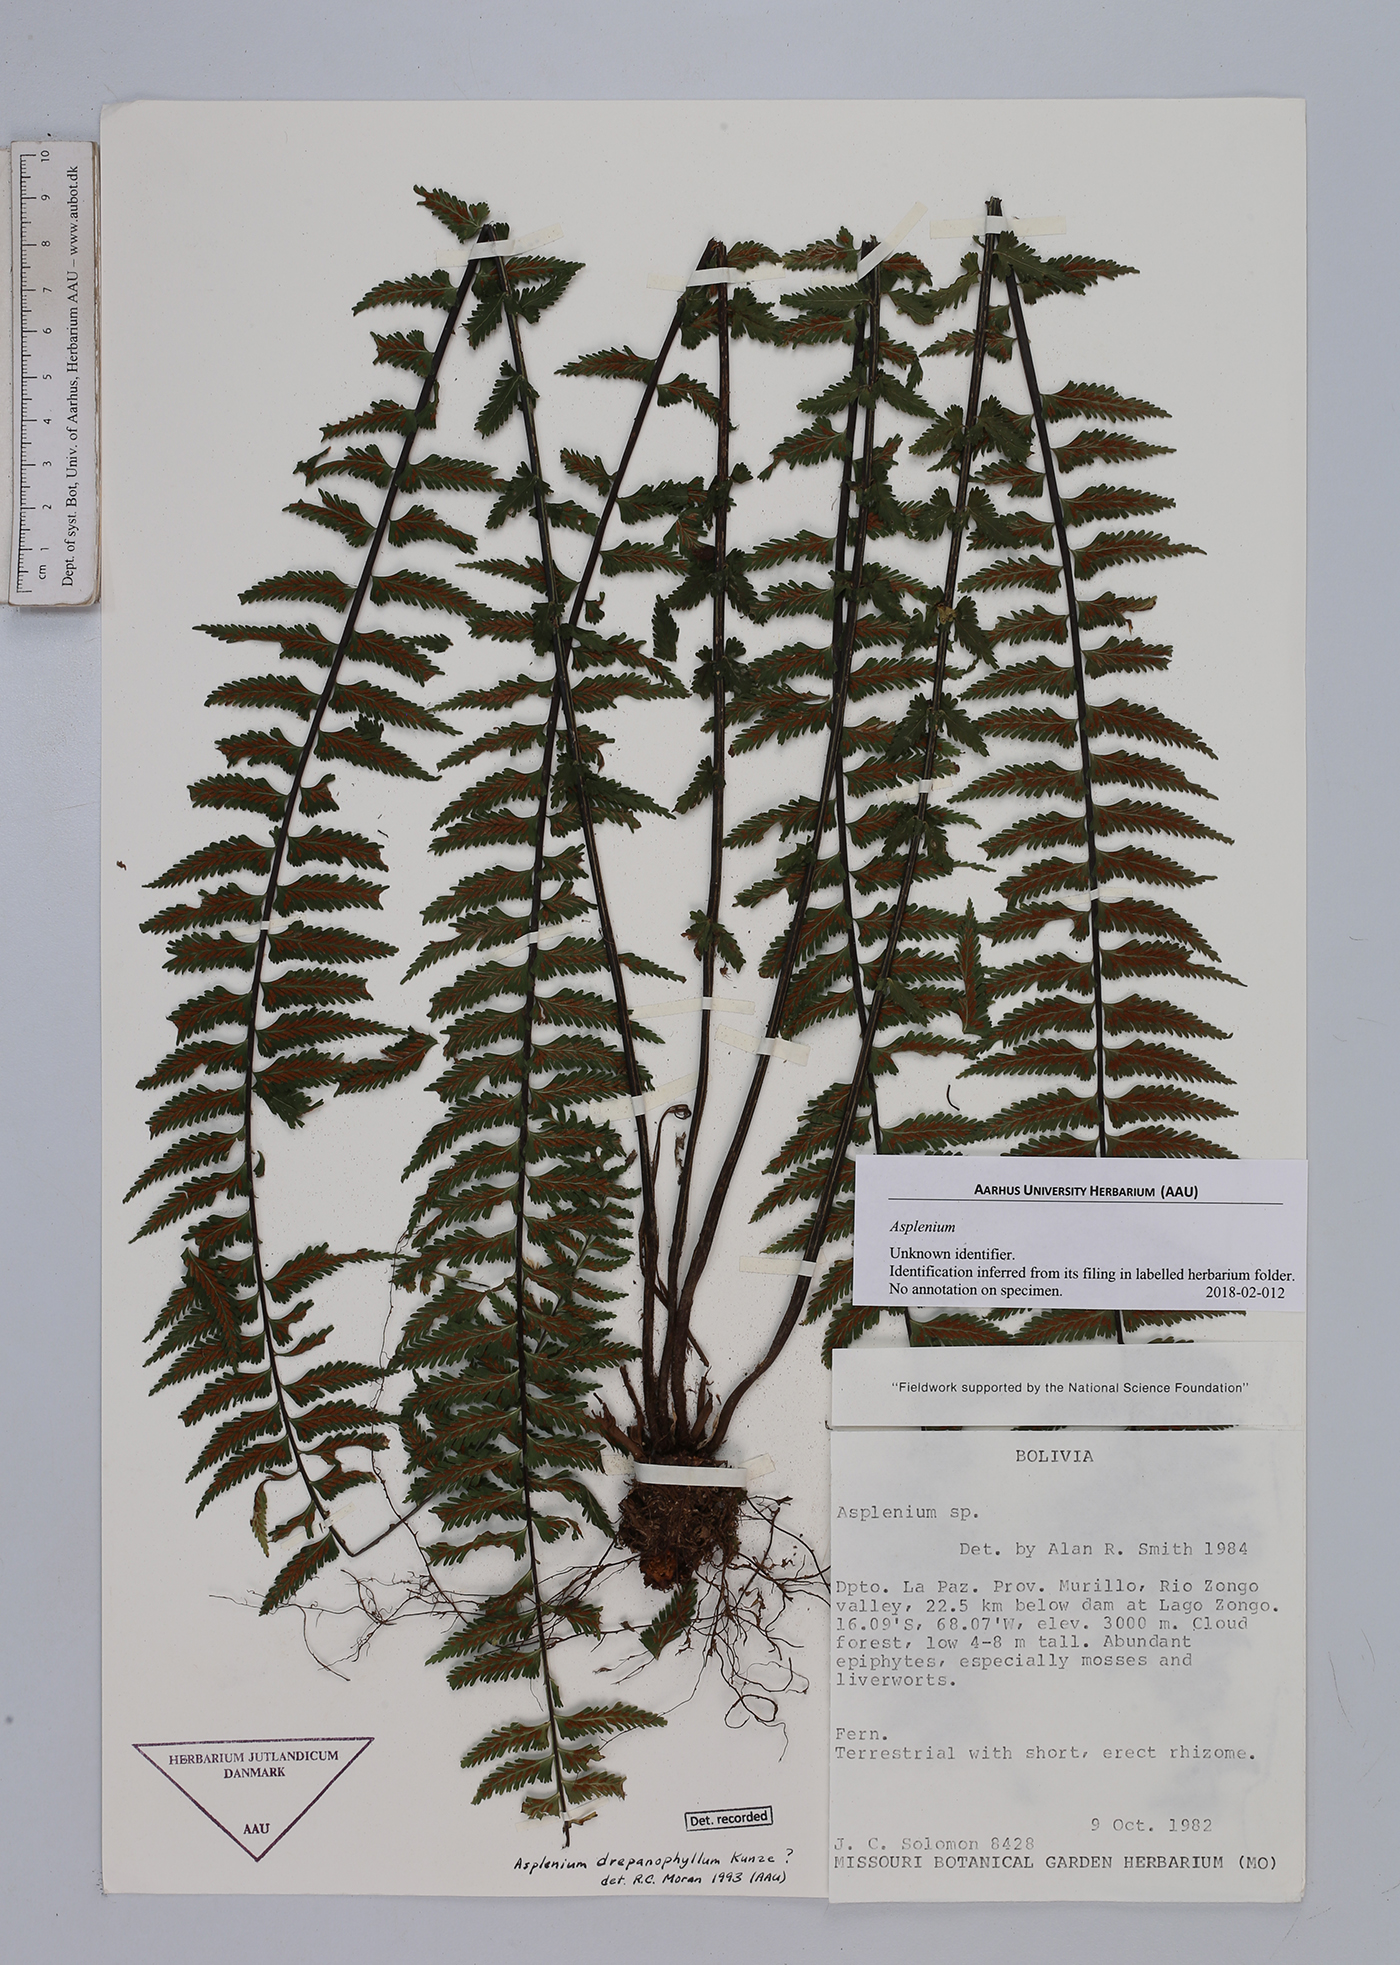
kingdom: Plantae
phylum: Tracheophyta
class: Polypodiopsida
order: Polypodiales
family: Aspleniaceae
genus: Asplenium
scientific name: Asplenium
